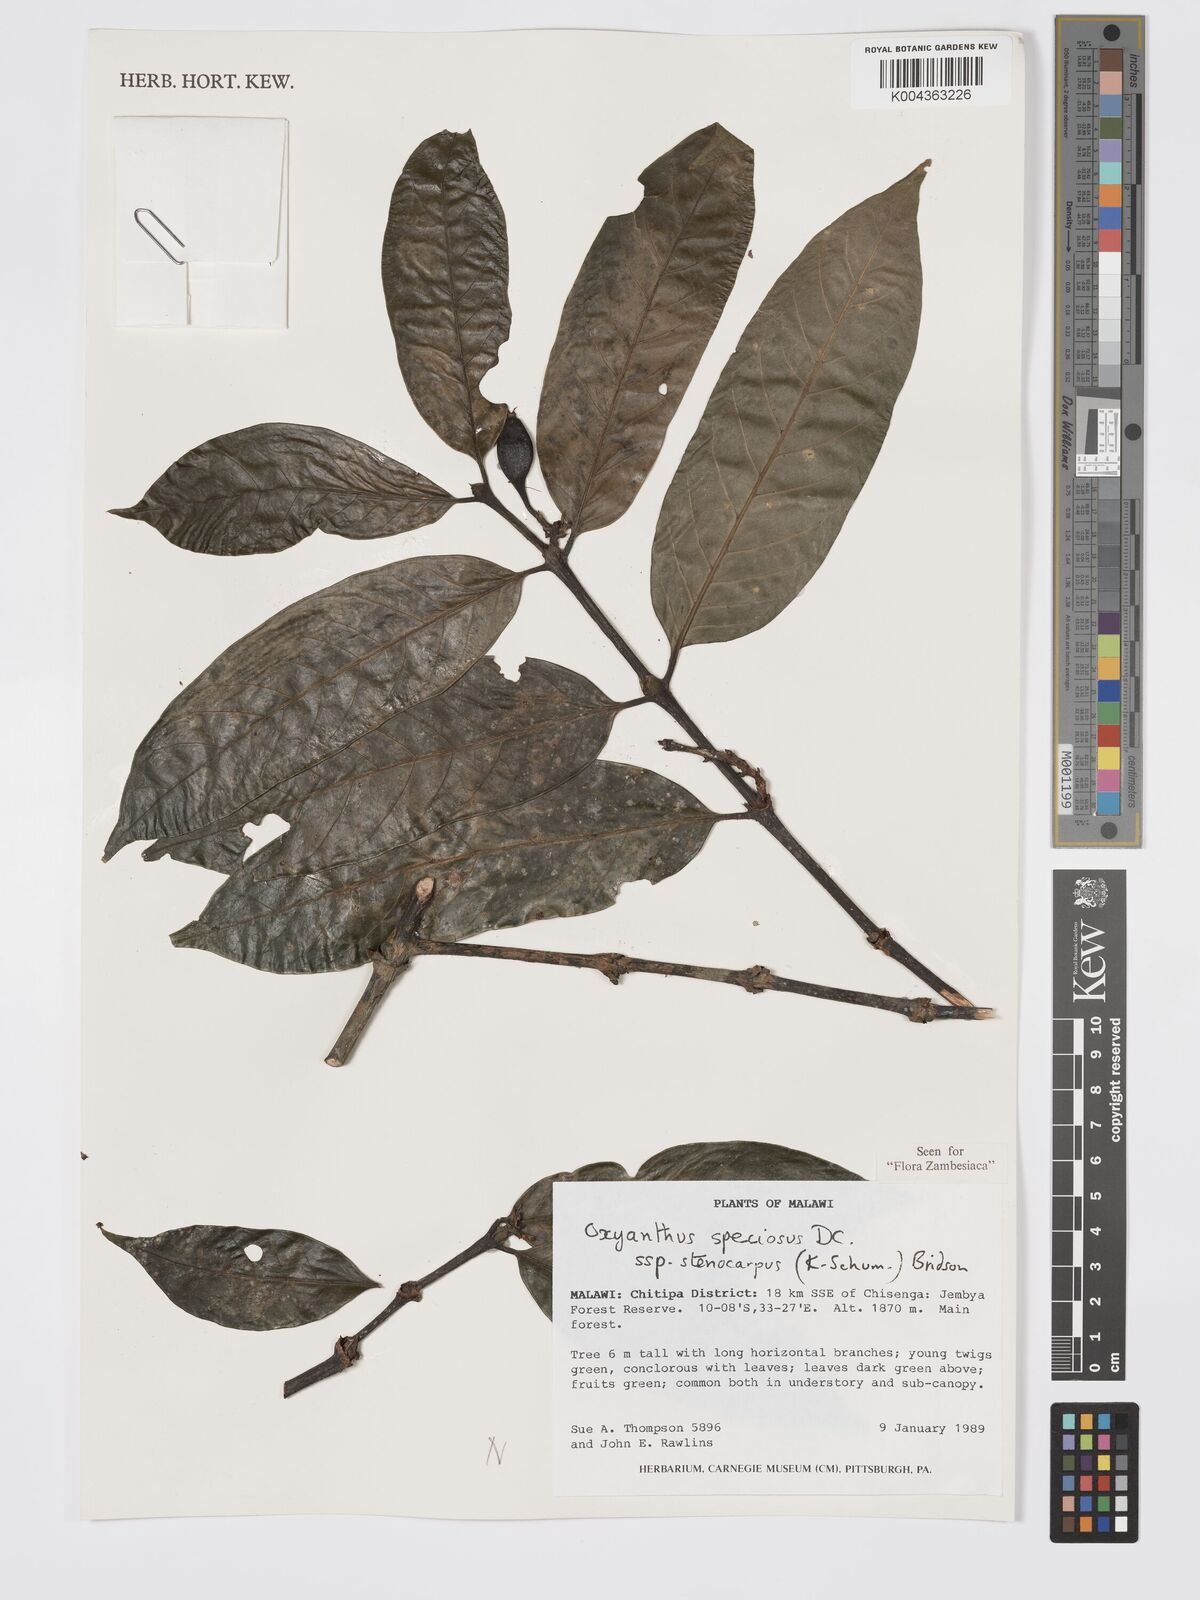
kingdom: Plantae
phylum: Tracheophyta
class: Magnoliopsida
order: Gentianales
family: Rubiaceae
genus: Oxyanthus
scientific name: Oxyanthus speciosus
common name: Whipstick loquat
